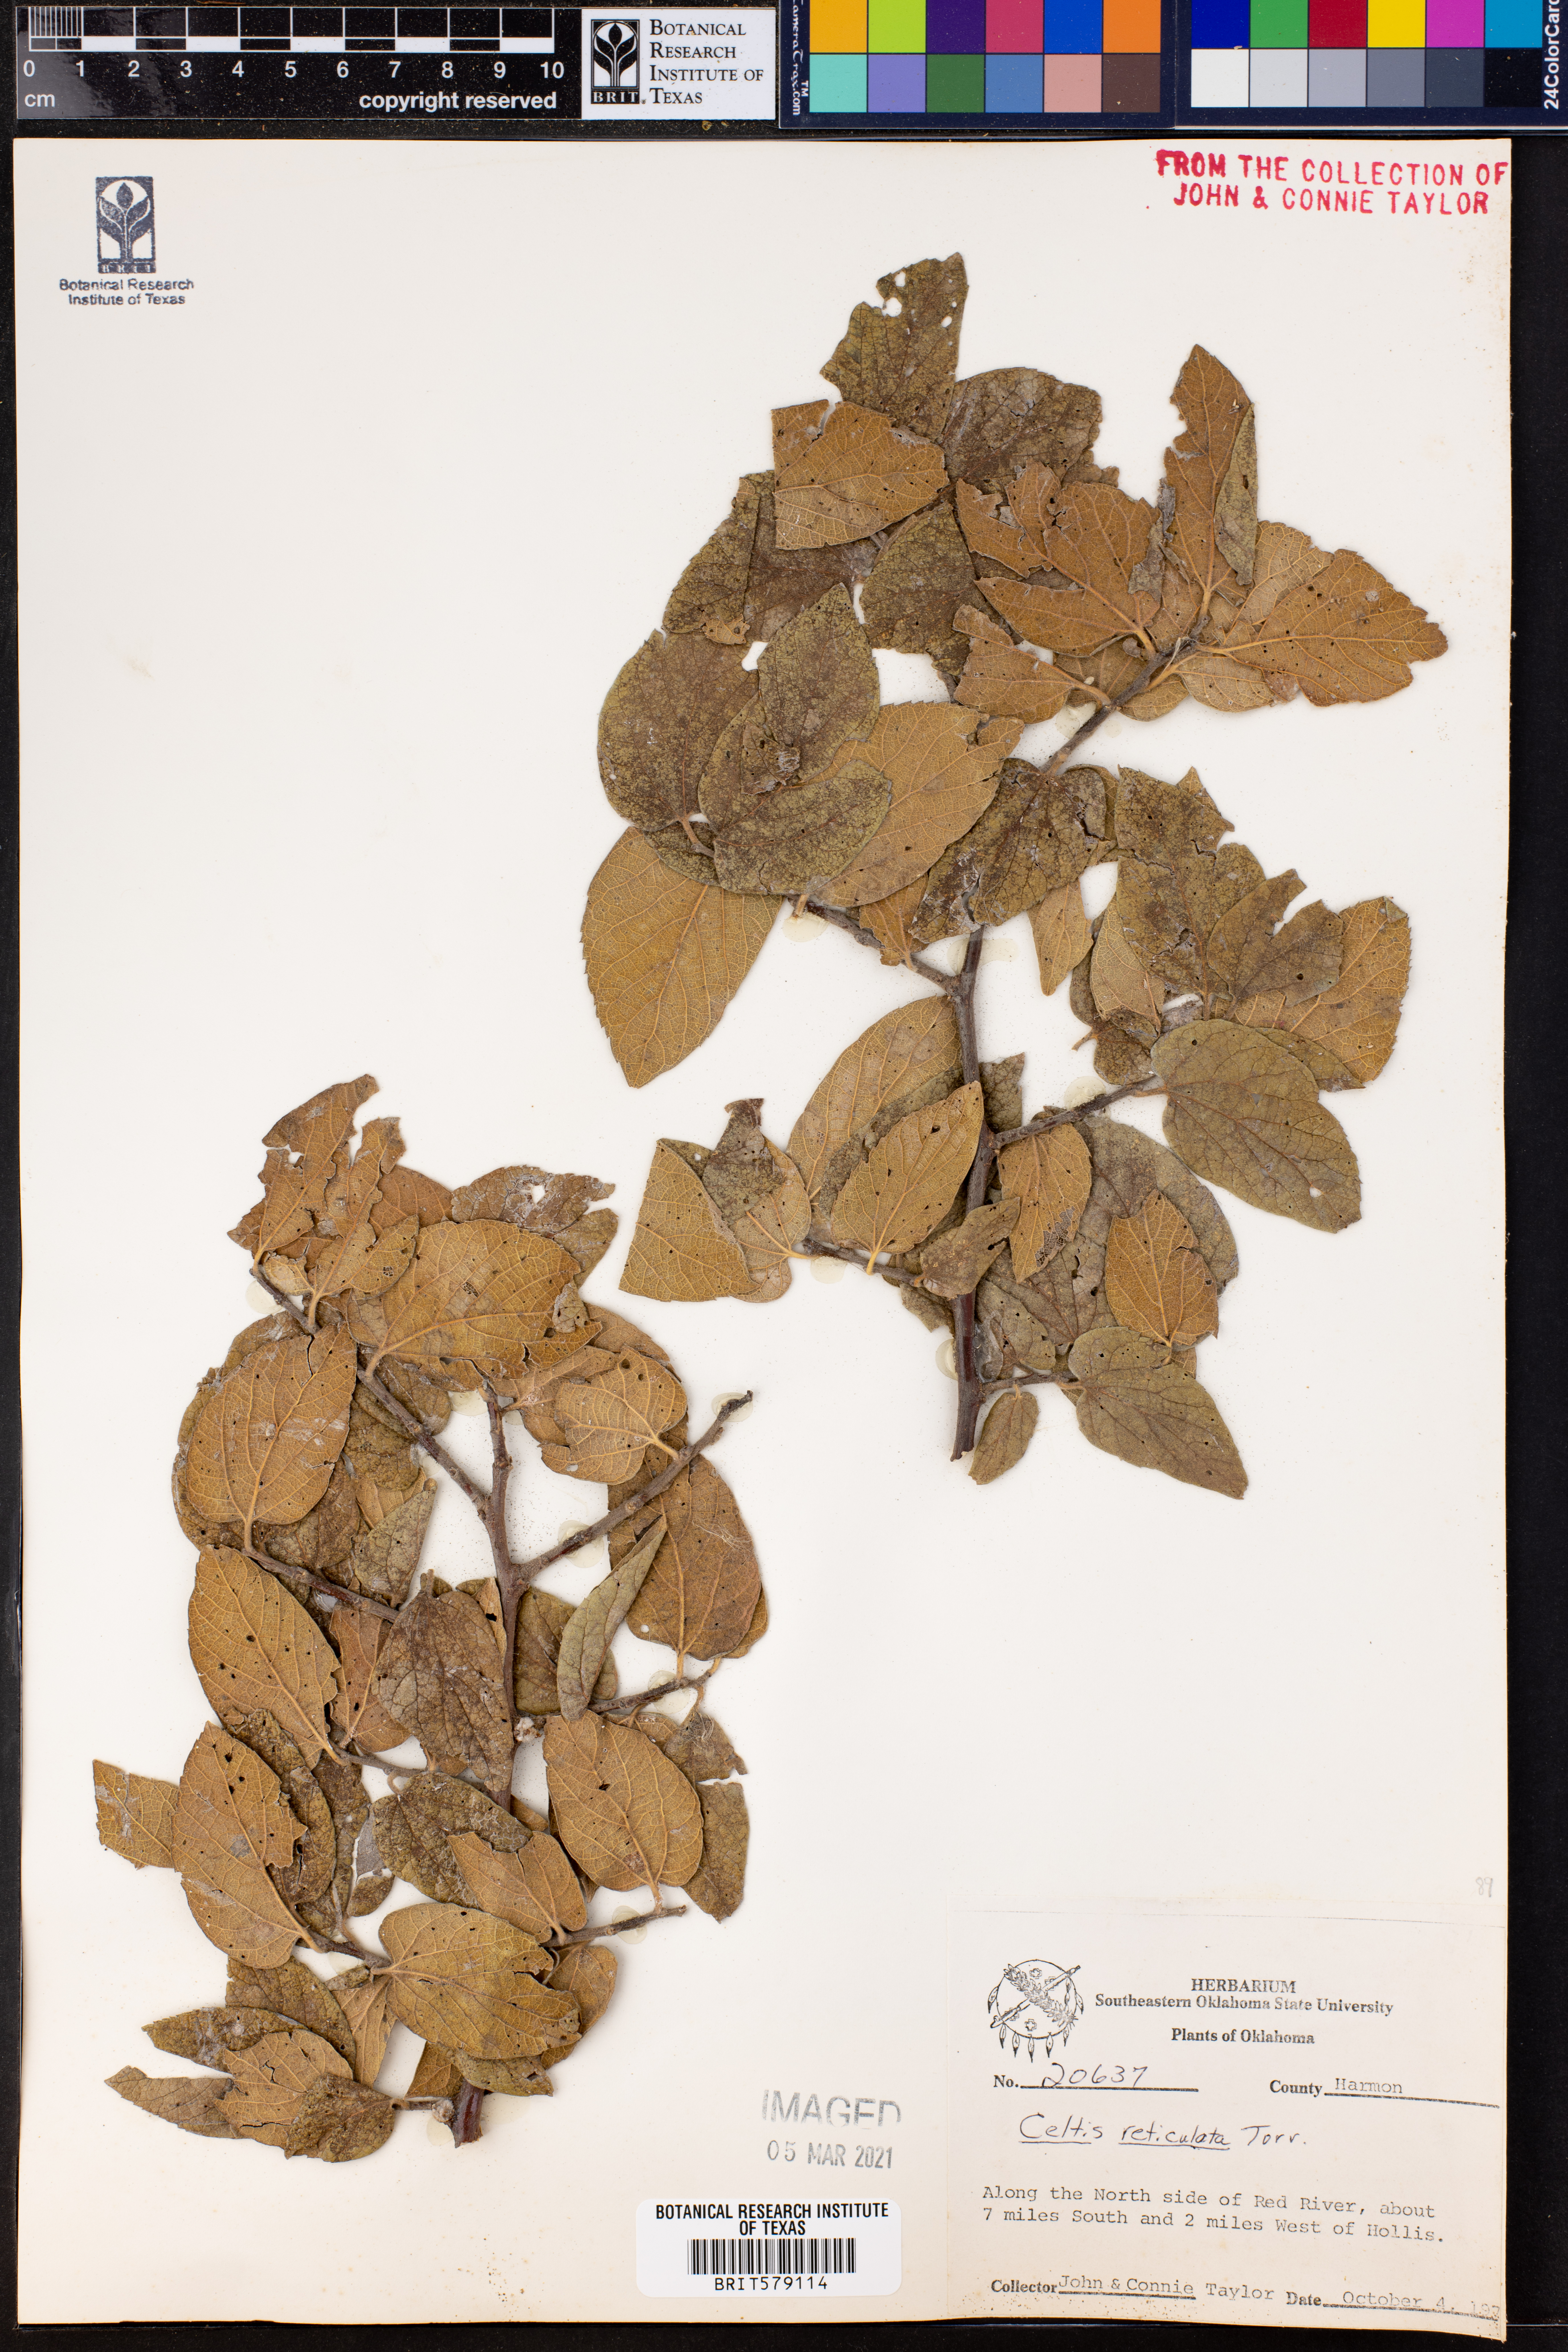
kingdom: Plantae
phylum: Tracheophyta
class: Magnoliopsida
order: Rosales
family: Cannabaceae
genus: Celtis
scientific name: Celtis reticulata
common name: Netleaf hackberry
